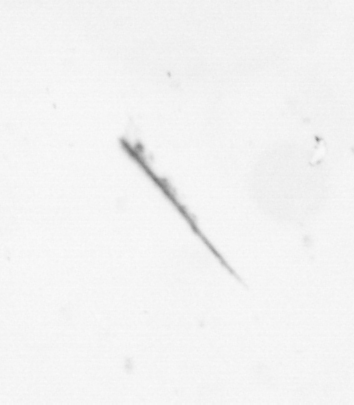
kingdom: Chromista
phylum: Ochrophyta
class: Bacillariophyceae
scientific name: Bacillariophyceae
